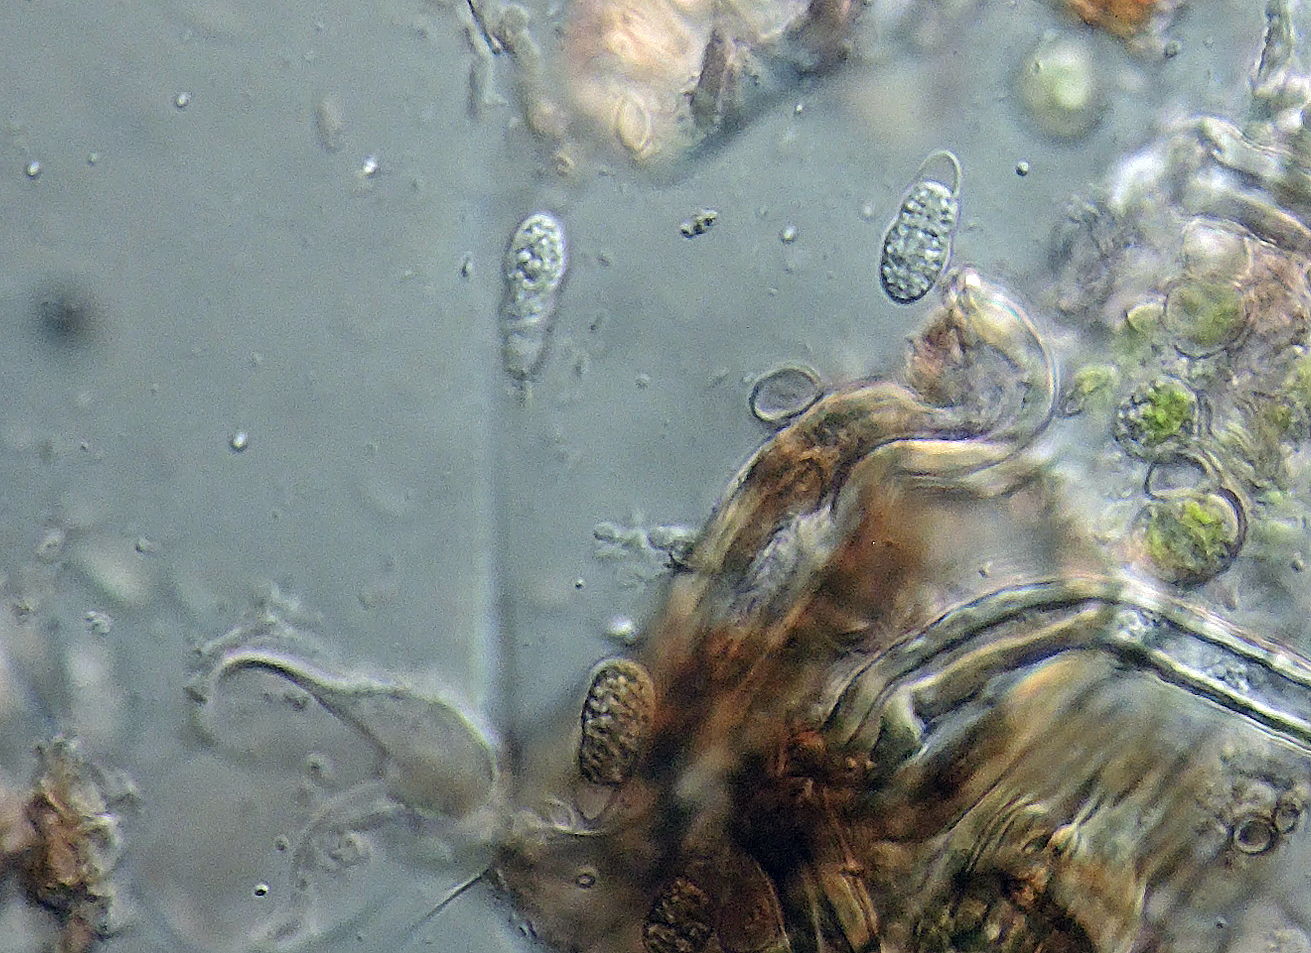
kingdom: Fungi
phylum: Ascomycota
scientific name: Ascomycota
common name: sæksvampe
